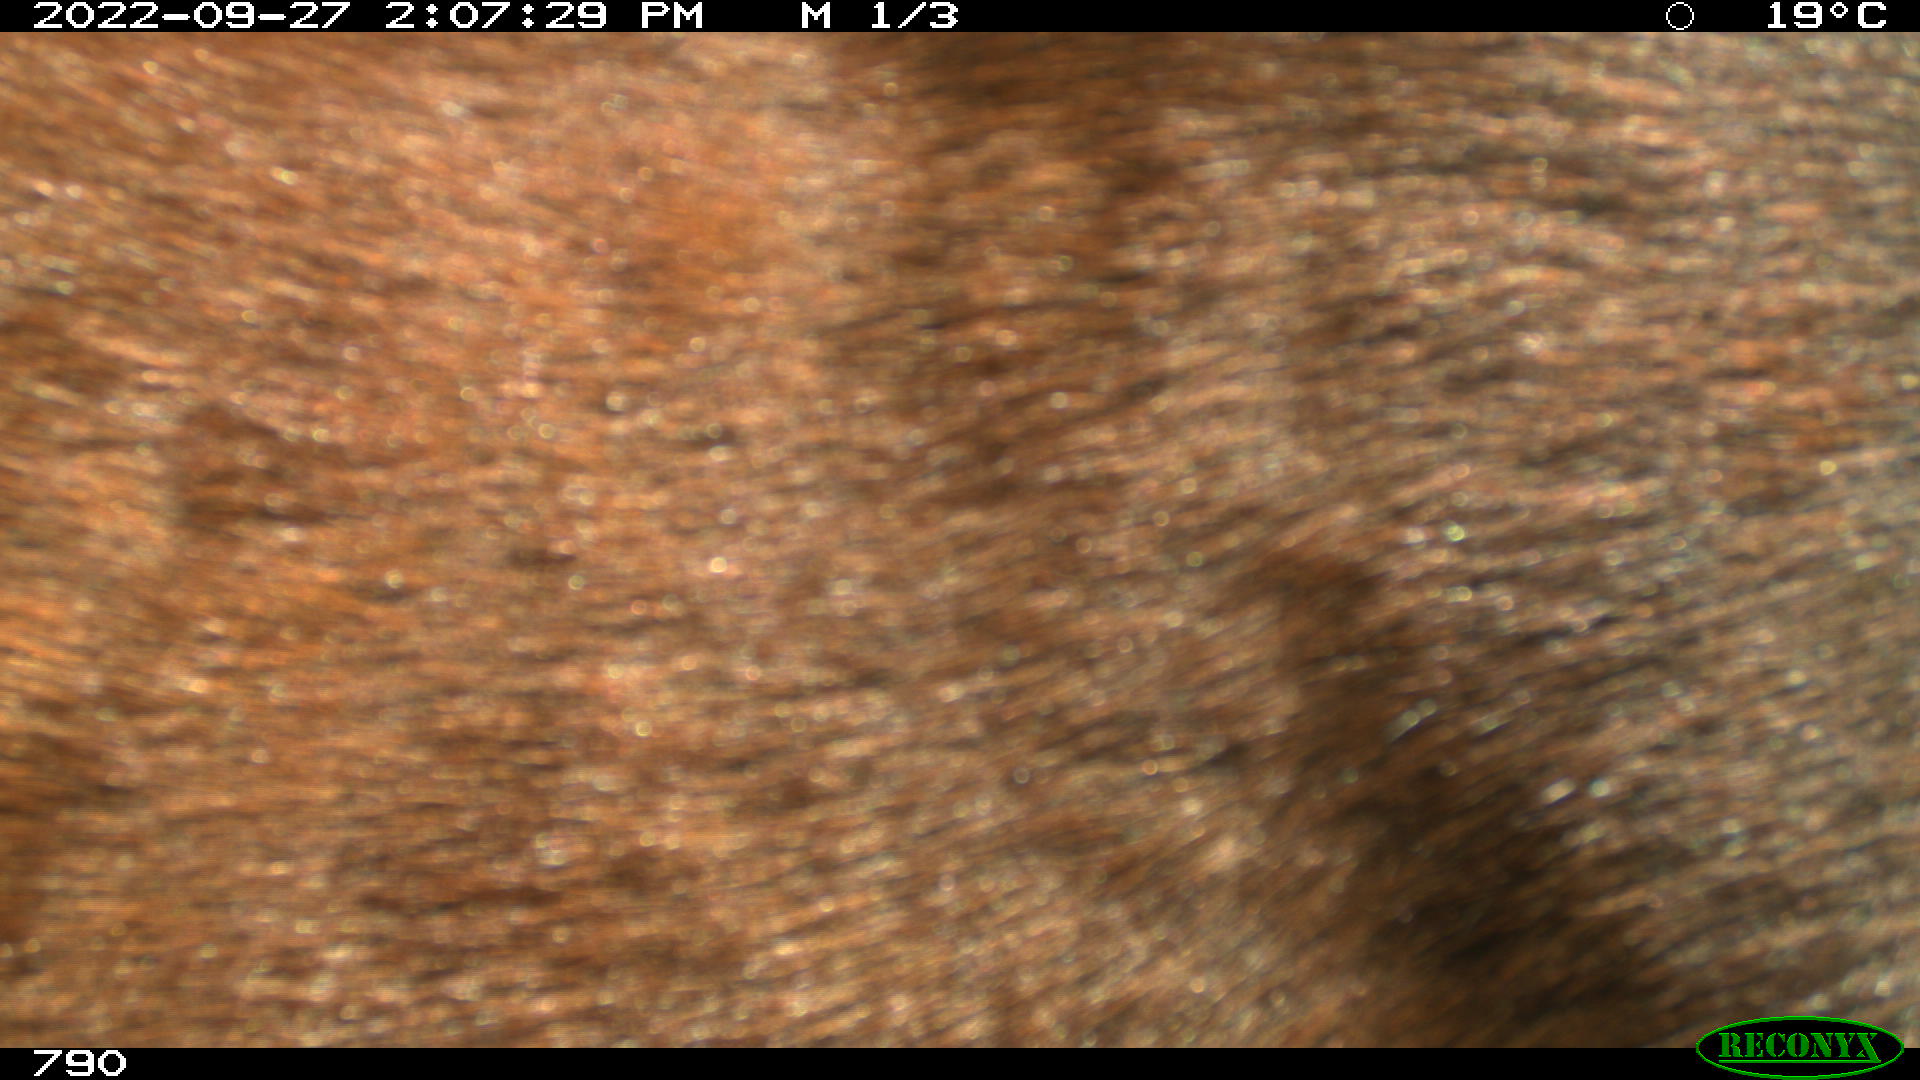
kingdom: Animalia
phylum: Chordata
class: Mammalia
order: Perissodactyla
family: Equidae
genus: Equus
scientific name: Equus caballus
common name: Horse
